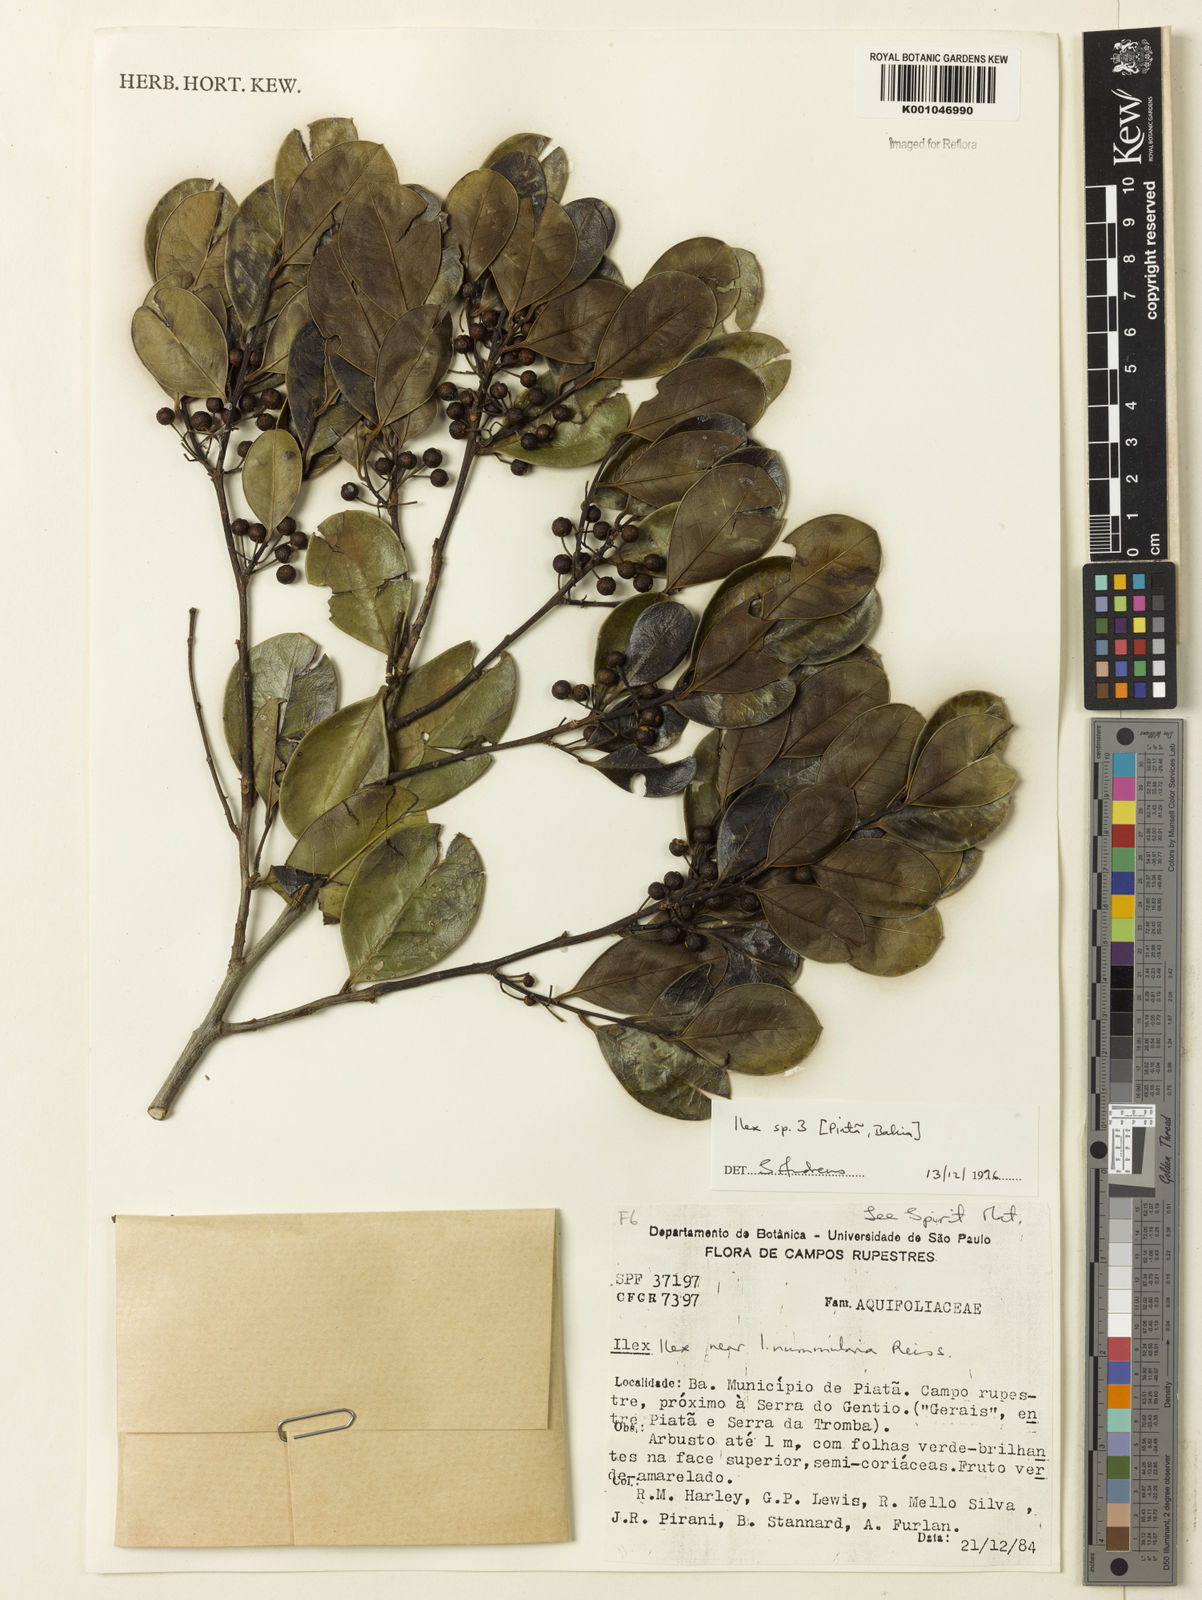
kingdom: Plantae
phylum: Tracheophyta
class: Magnoliopsida
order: Aquifoliales
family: Aquifoliaceae
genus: Ilex
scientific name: Ilex
